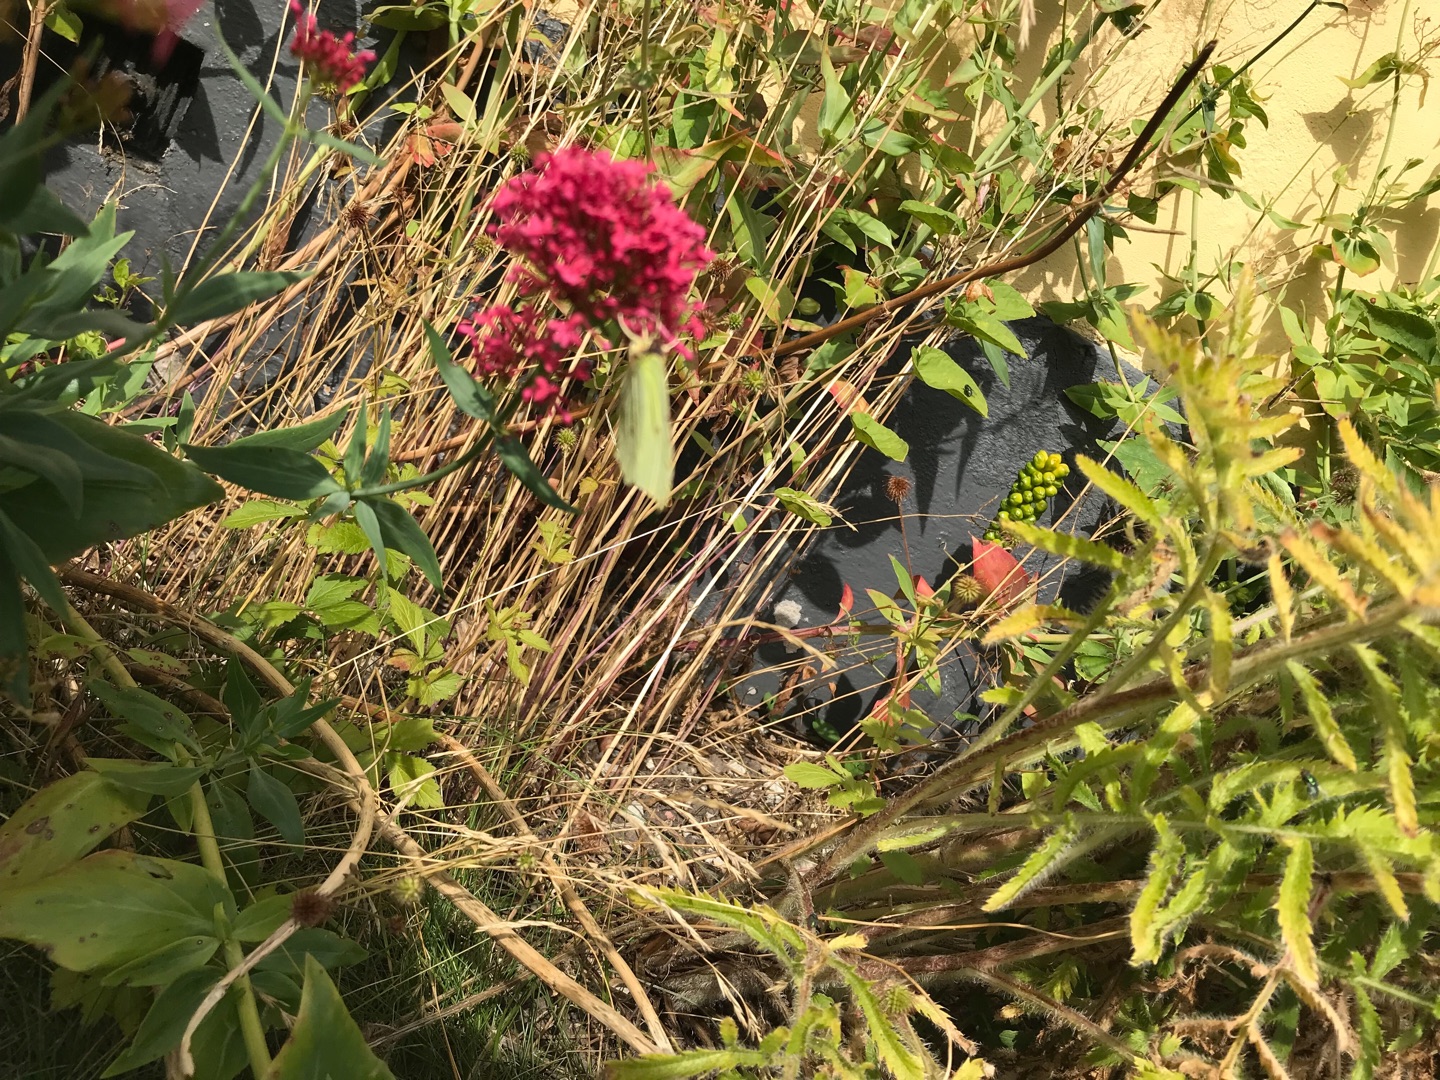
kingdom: Animalia
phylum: Arthropoda
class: Insecta
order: Lepidoptera
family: Pieridae
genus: Gonepteryx
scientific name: Gonepteryx rhamni
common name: Citronsommerfugl
